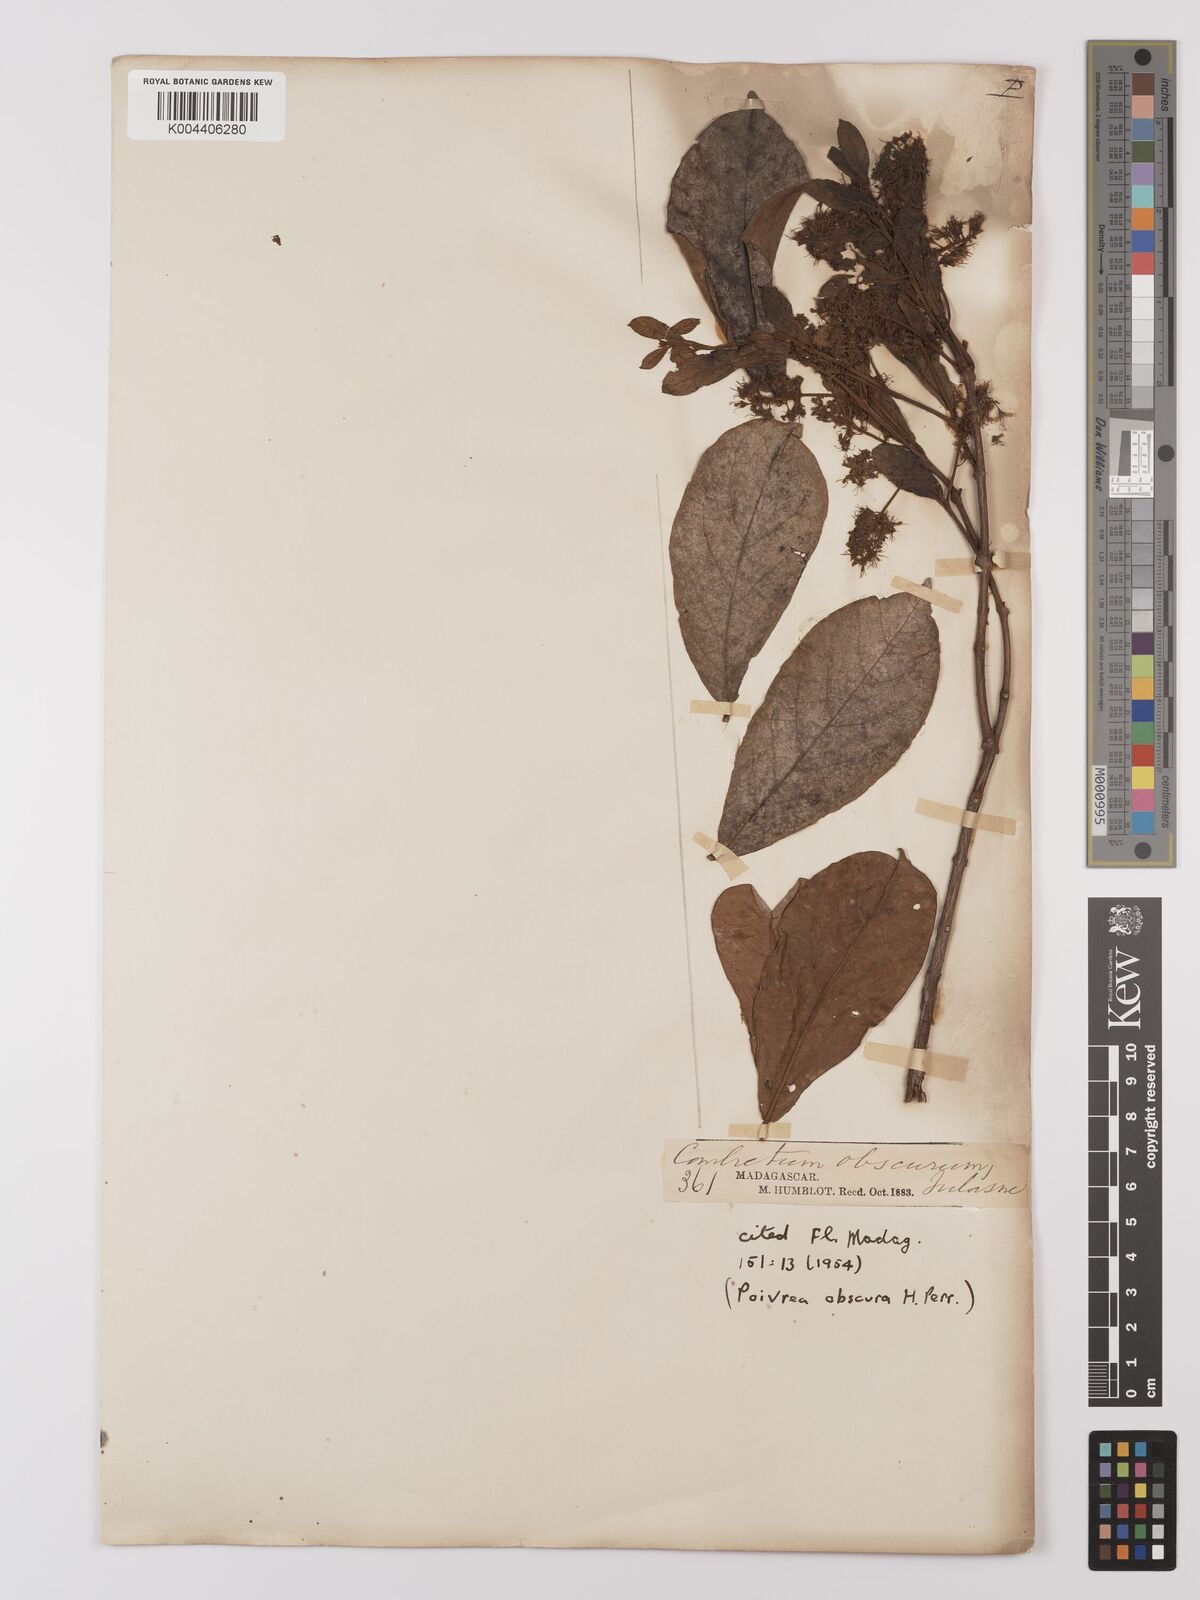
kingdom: Plantae
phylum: Tracheophyta
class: Magnoliopsida
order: Myrtales
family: Combretaceae
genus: Combretum
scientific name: Combretum obscurum
